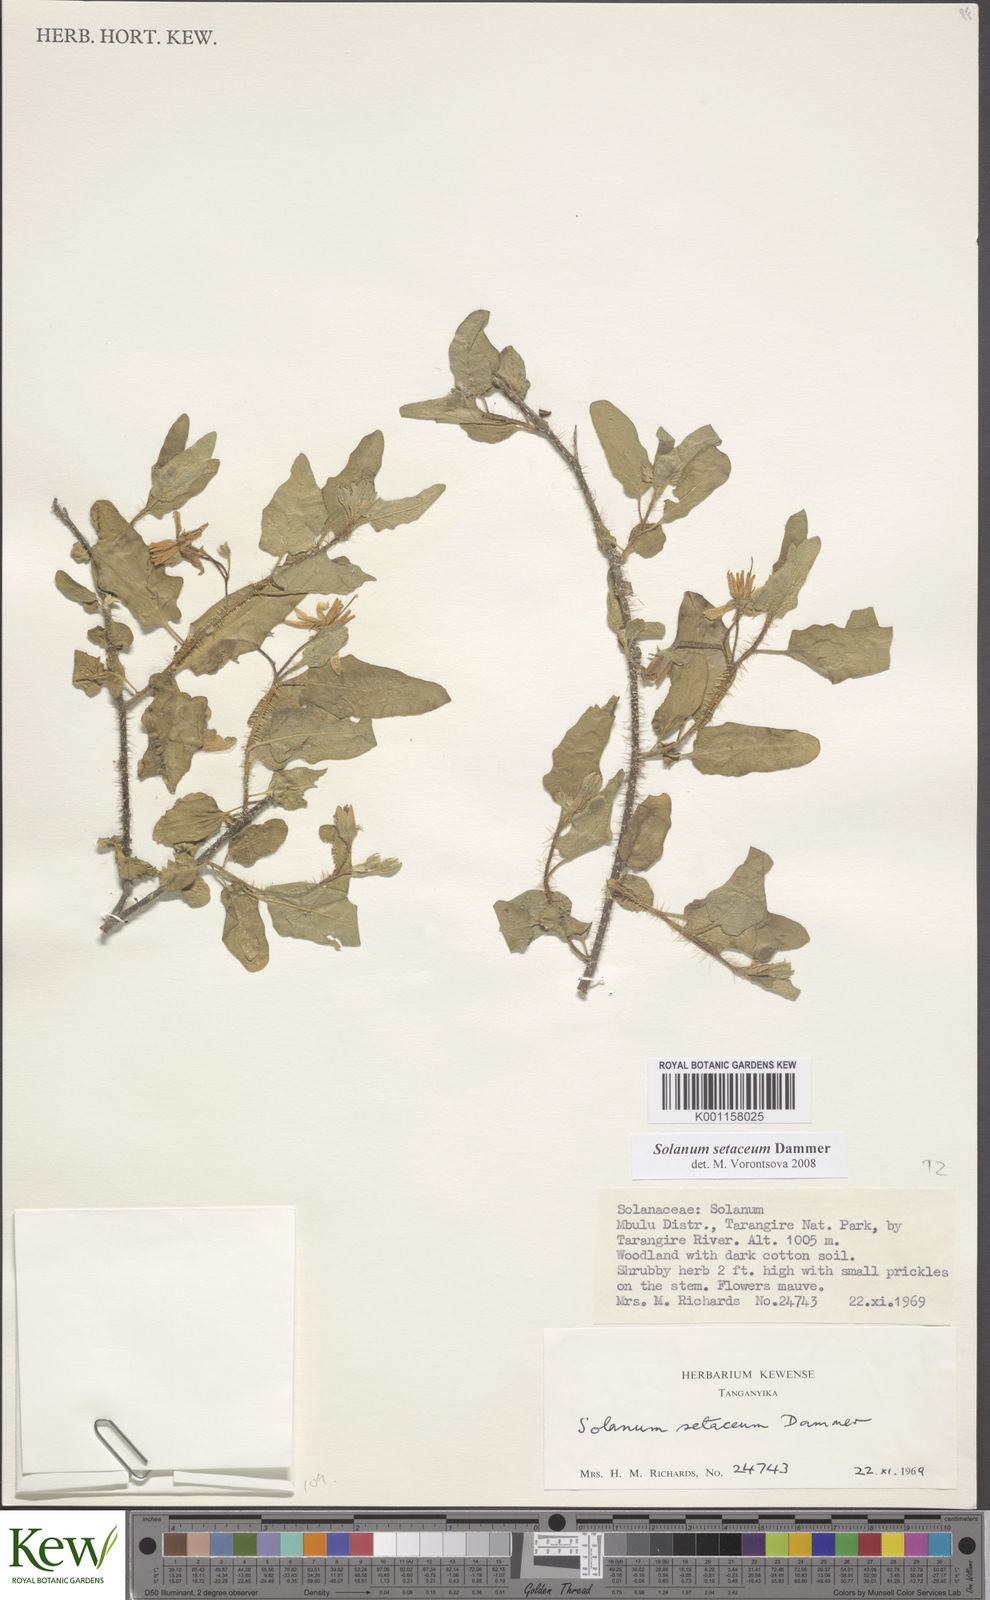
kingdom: Plantae
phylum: Tracheophyta
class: Magnoliopsida
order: Solanales
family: Solanaceae
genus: Solanum
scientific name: Solanum setaceum
